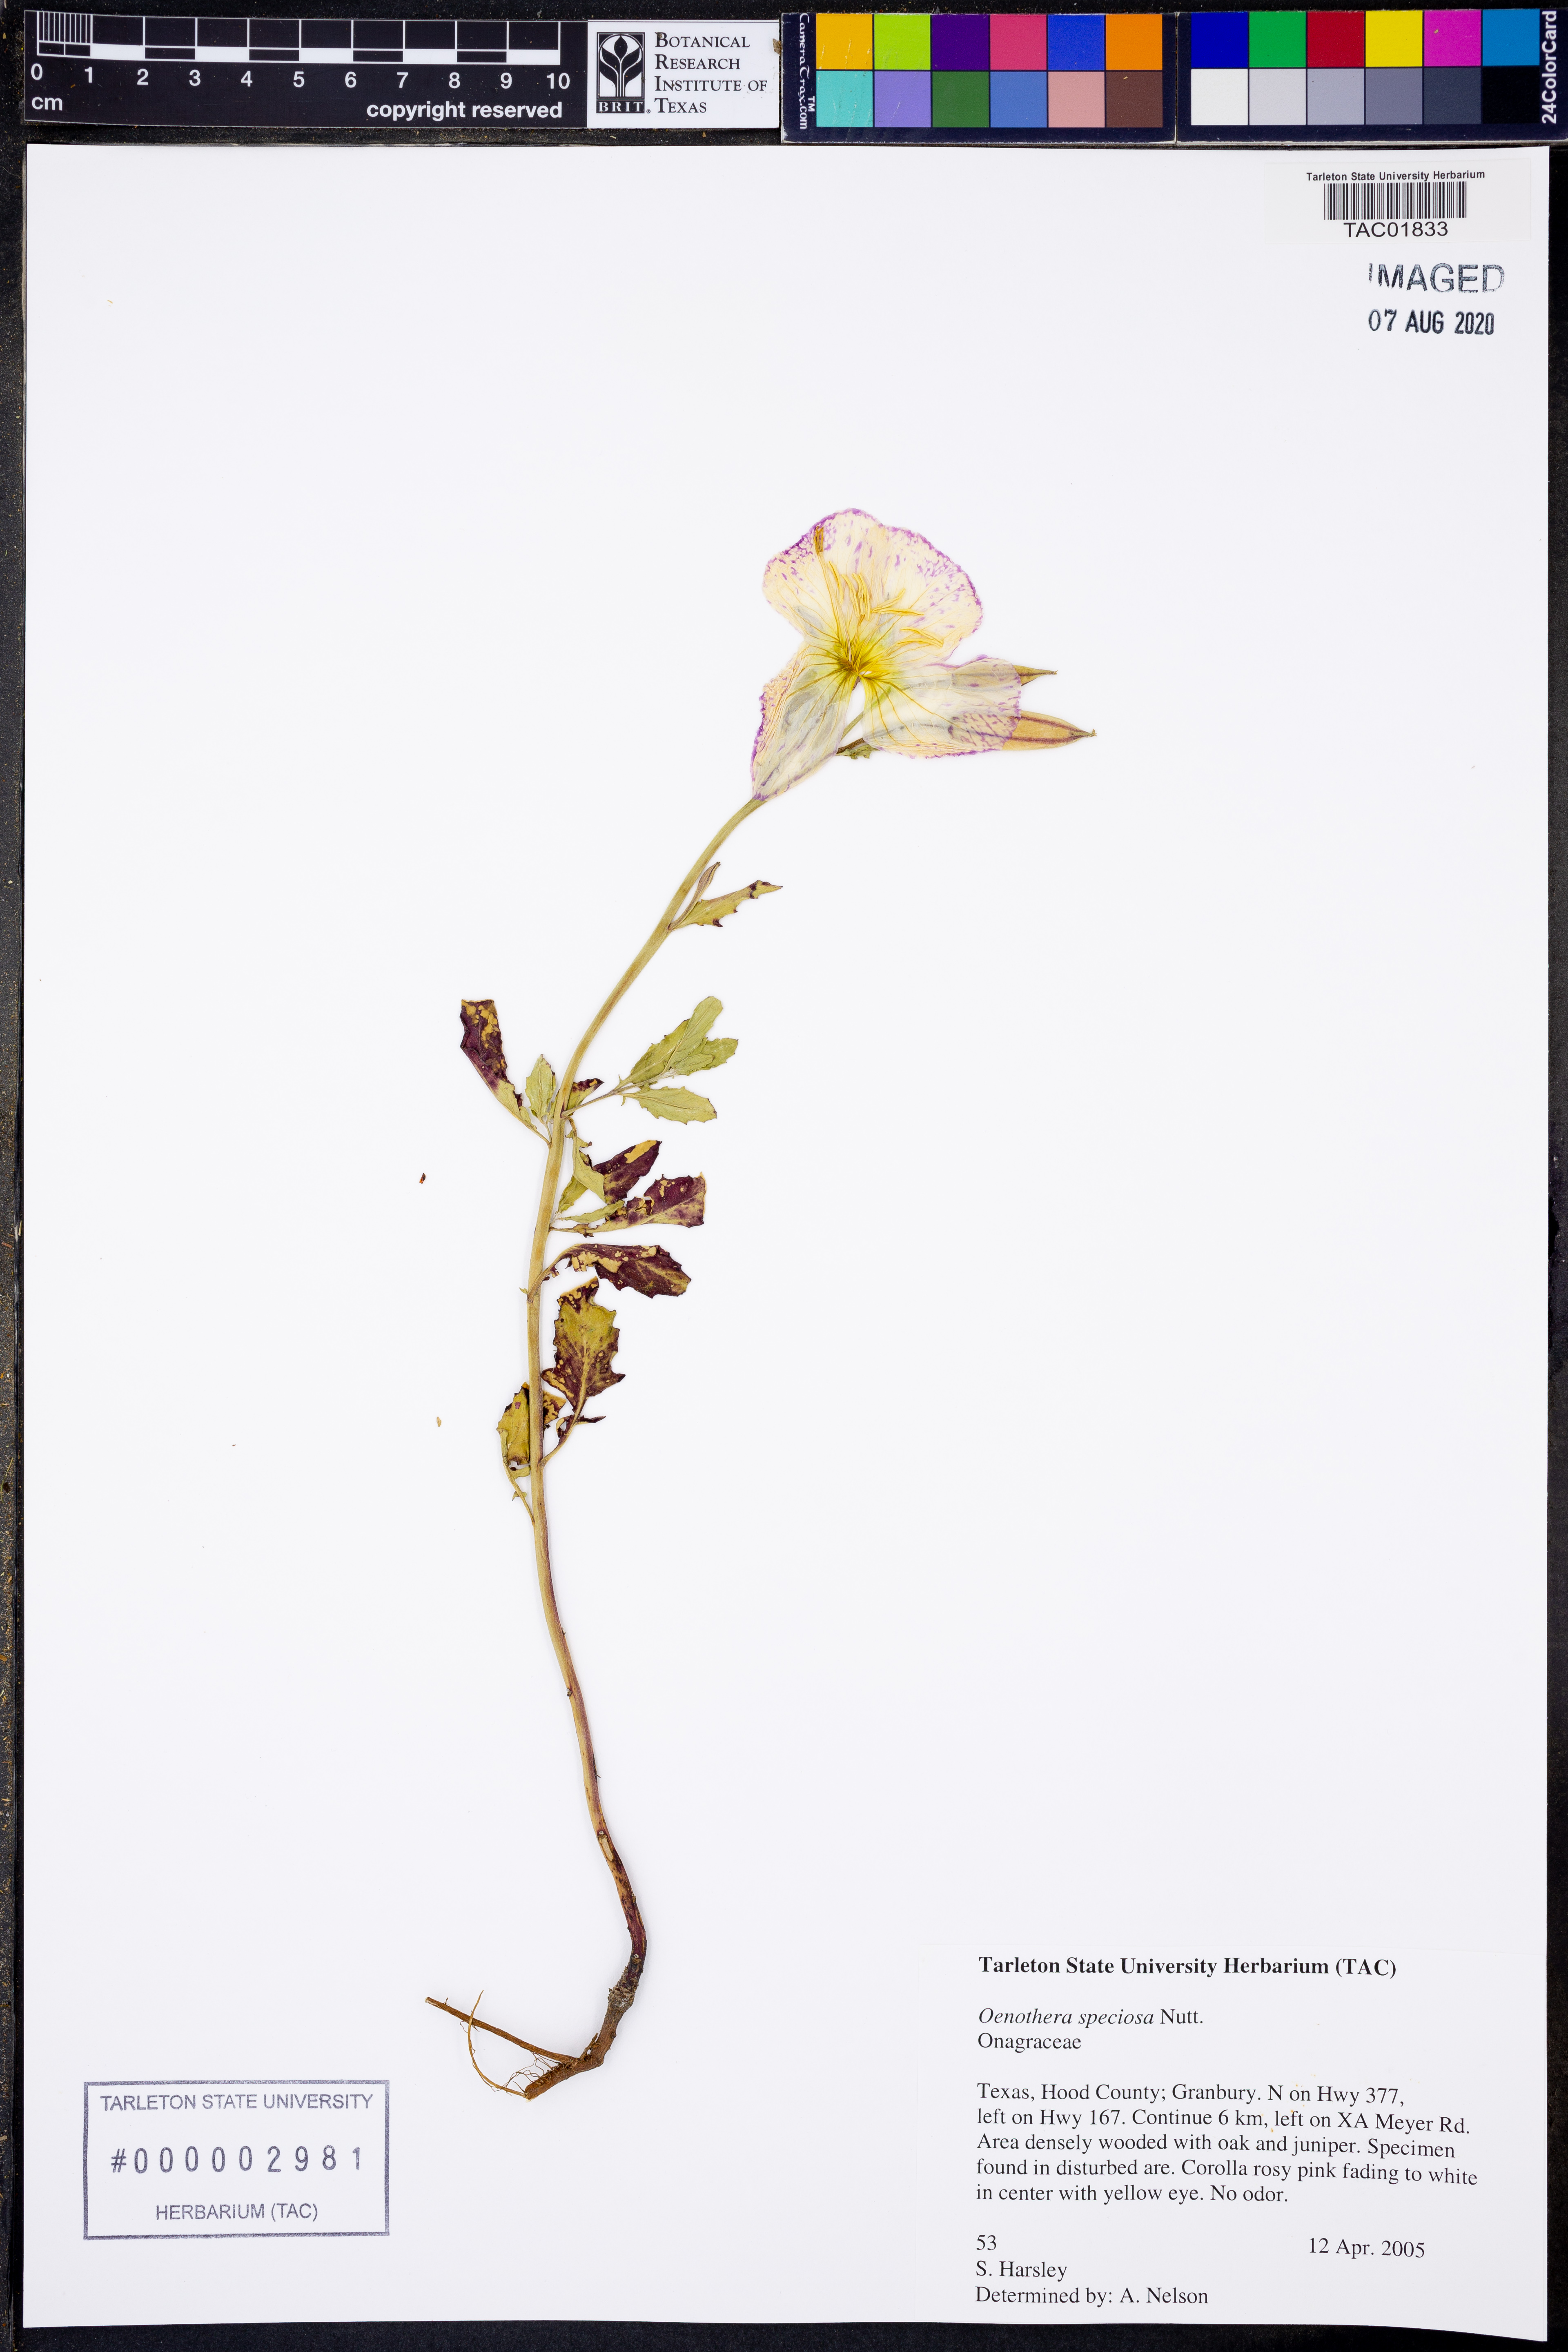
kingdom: Plantae
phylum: Tracheophyta
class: Magnoliopsida
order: Myrtales
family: Onagraceae
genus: Oenothera
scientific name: Oenothera speciosa
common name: White evening-primrose
